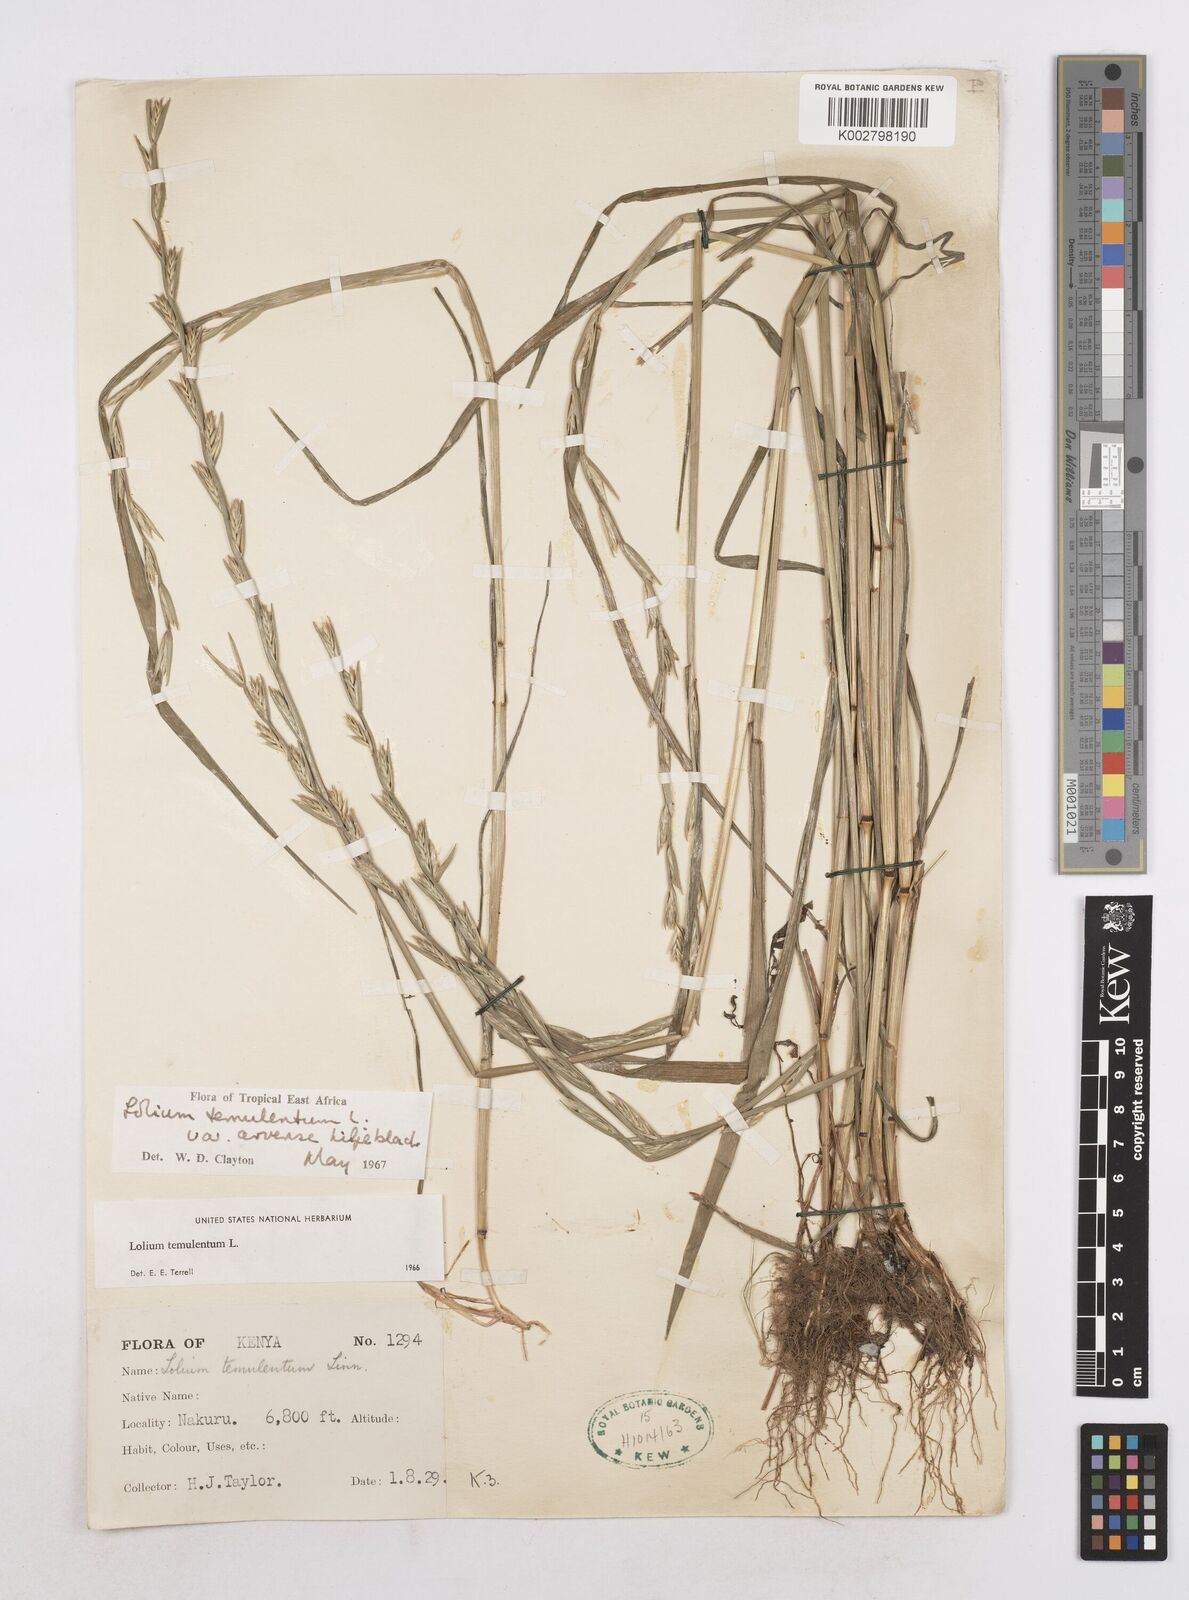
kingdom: Plantae
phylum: Tracheophyta
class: Liliopsida
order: Poales
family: Poaceae
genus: Lolium
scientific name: Lolium temulentum
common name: Darnel
